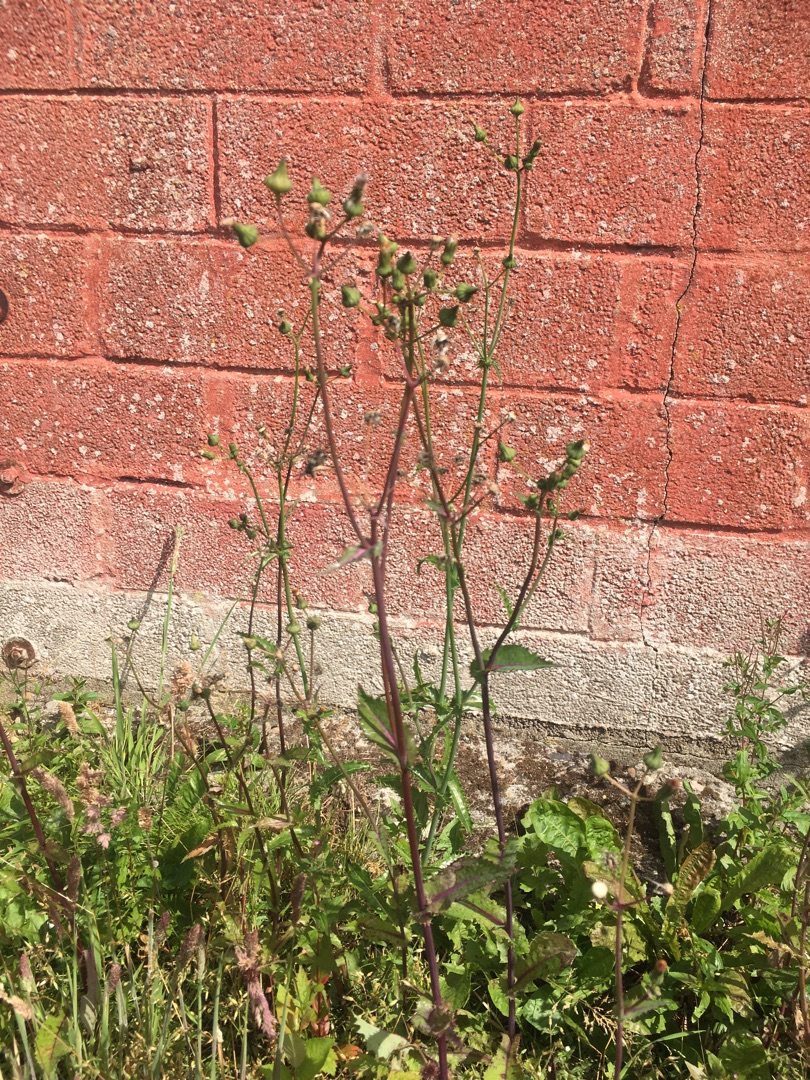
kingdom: Plantae
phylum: Tracheophyta
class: Magnoliopsida
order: Asterales
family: Asteraceae
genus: Sonchus
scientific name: Sonchus asper
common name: Ru svinemælk
